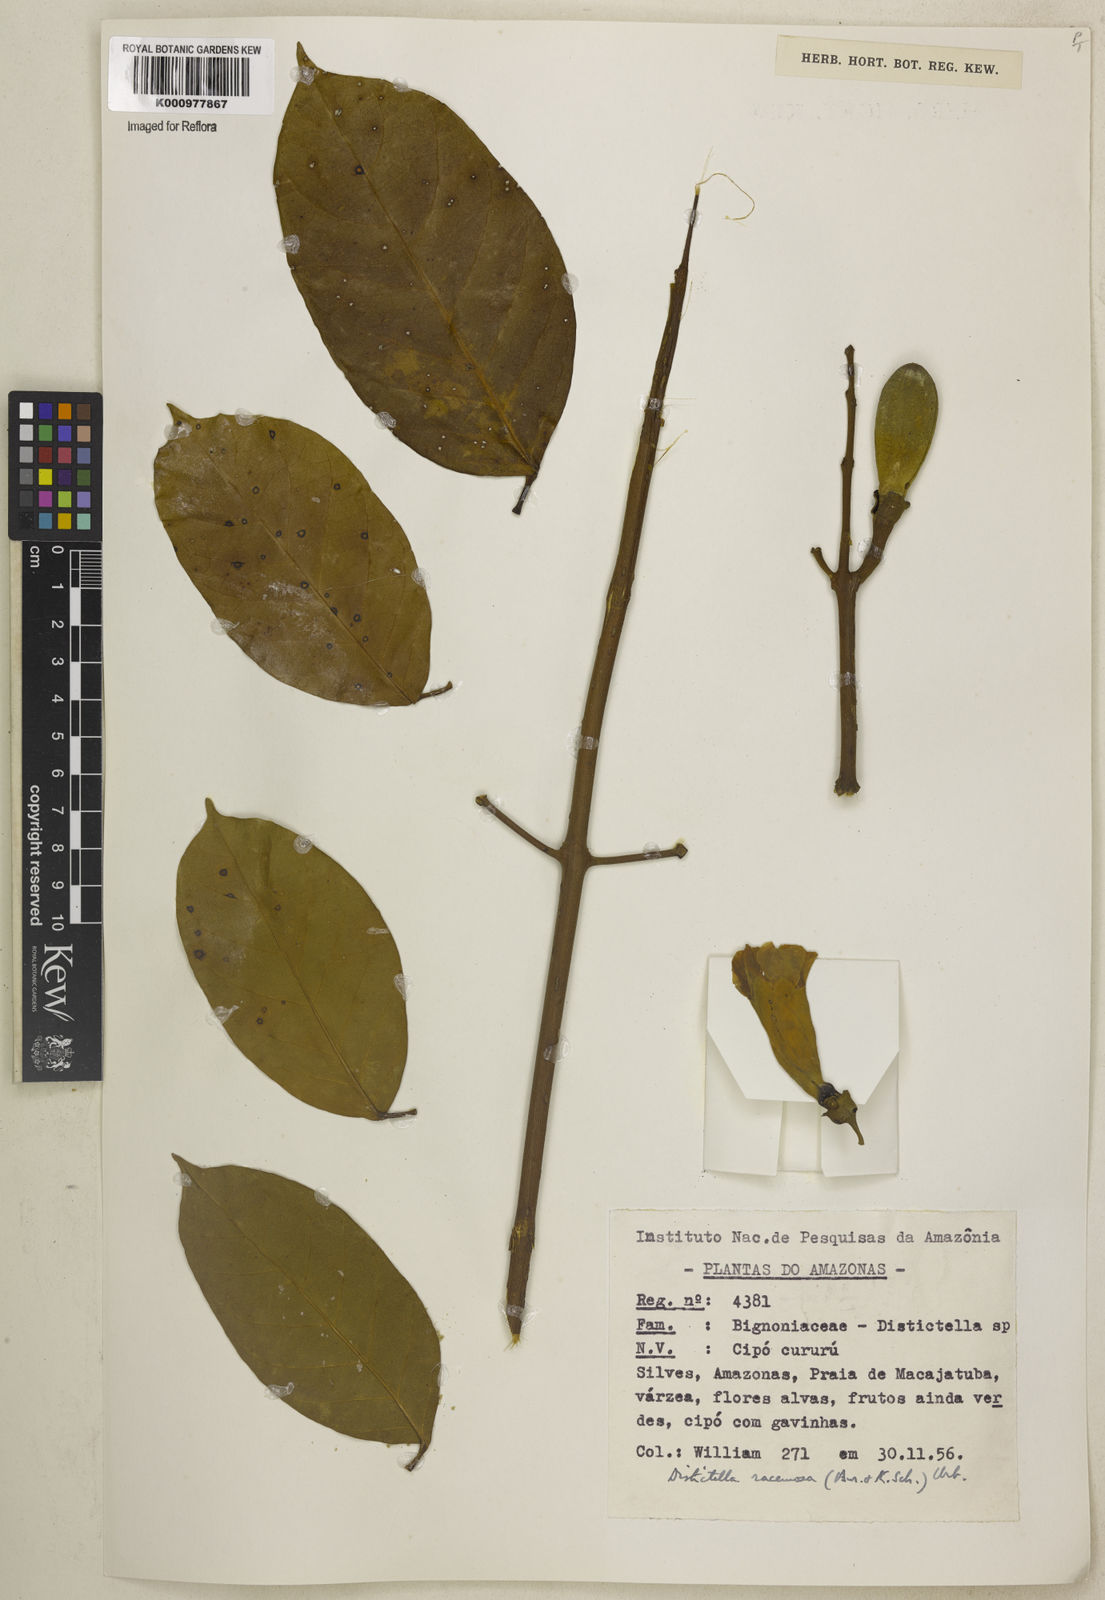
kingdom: Plantae
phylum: Tracheophyta
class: Magnoliopsida
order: Lamiales
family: Bignoniaceae
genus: Amphilophium
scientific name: Amphilophium racemosum
